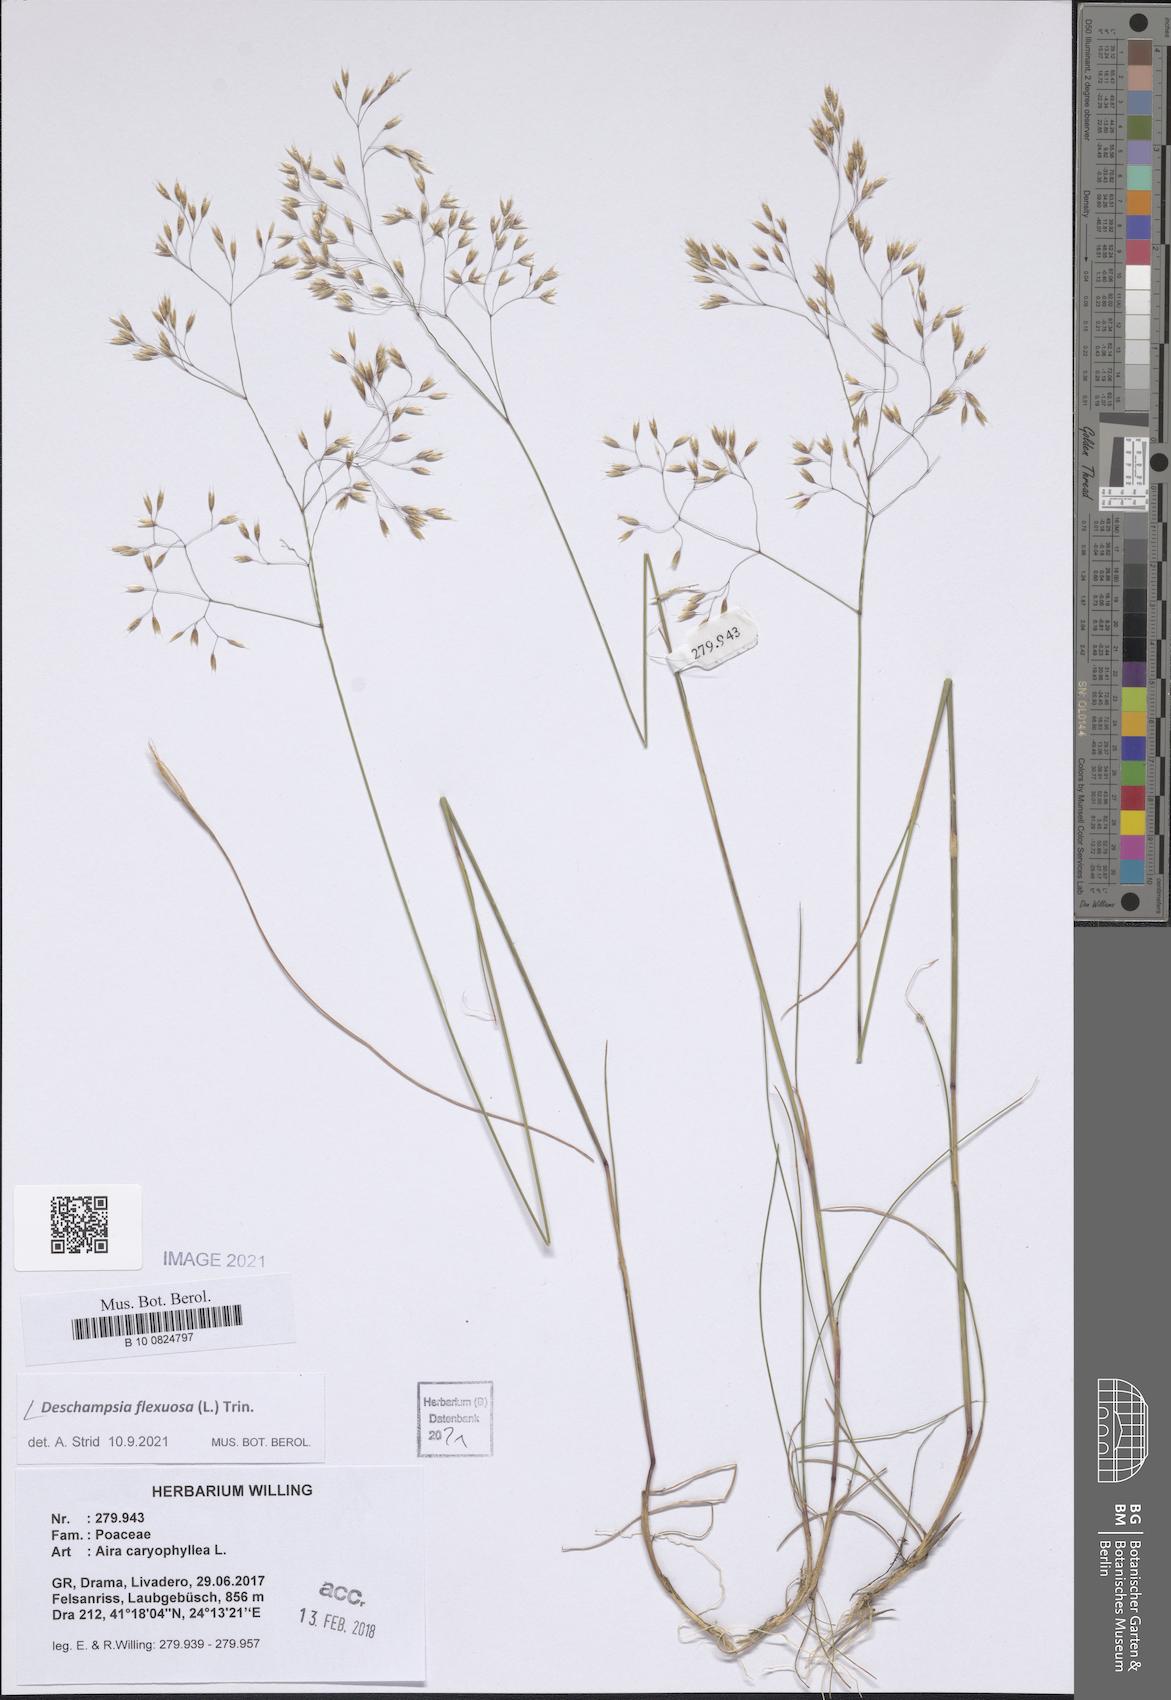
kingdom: Plantae
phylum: Tracheophyta
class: Liliopsida
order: Poales
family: Poaceae
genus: Avenella
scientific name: Avenella flexuosa
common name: Wavy hairgrass
